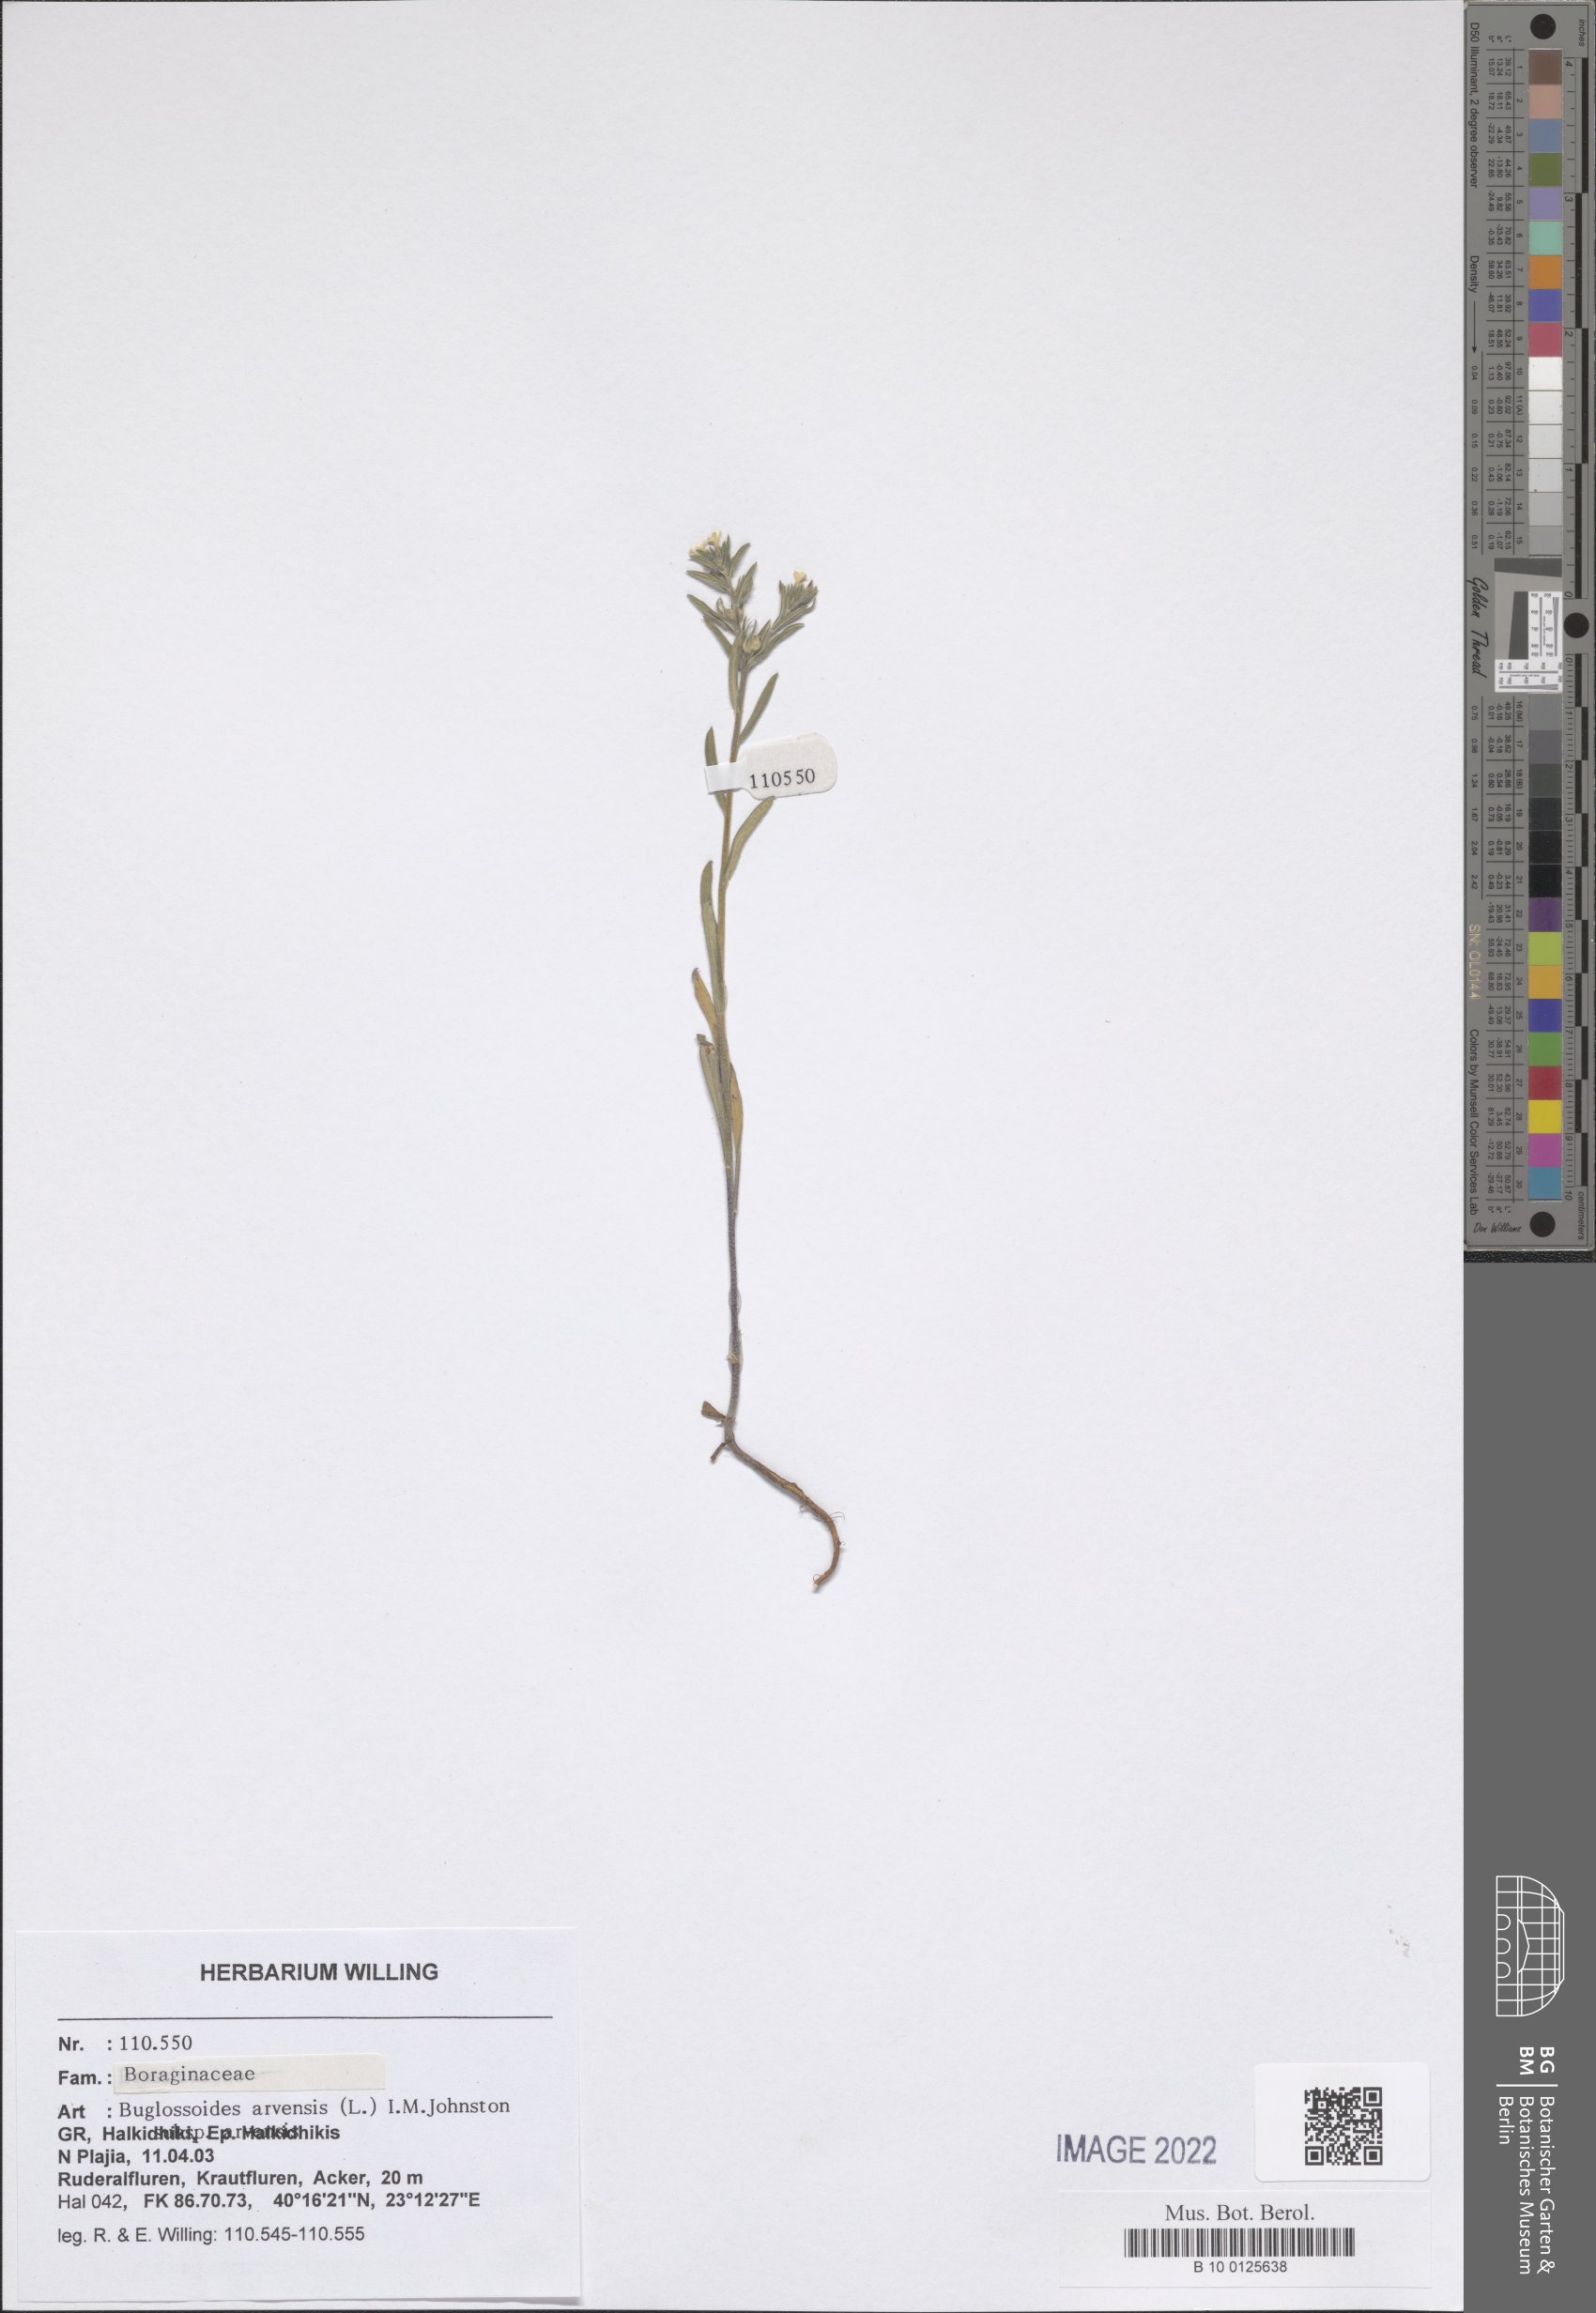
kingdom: Plantae
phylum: Tracheophyta
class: Magnoliopsida
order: Boraginales
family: Boraginaceae
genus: Buglossoides
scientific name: Buglossoides arvensis
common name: Corn gromwell
